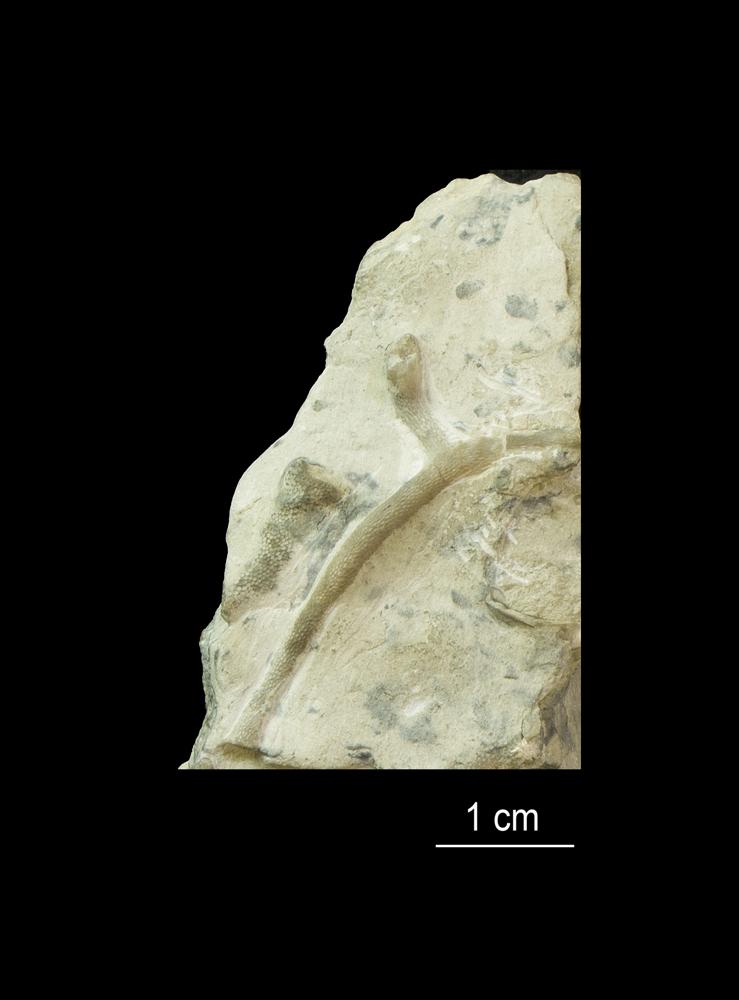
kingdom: Animalia
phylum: Bryozoa
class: Stenolaemata
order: Trepostomatida
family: Aisenvergiidae
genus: Eridotrypa
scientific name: Eridotrypa aedilis
